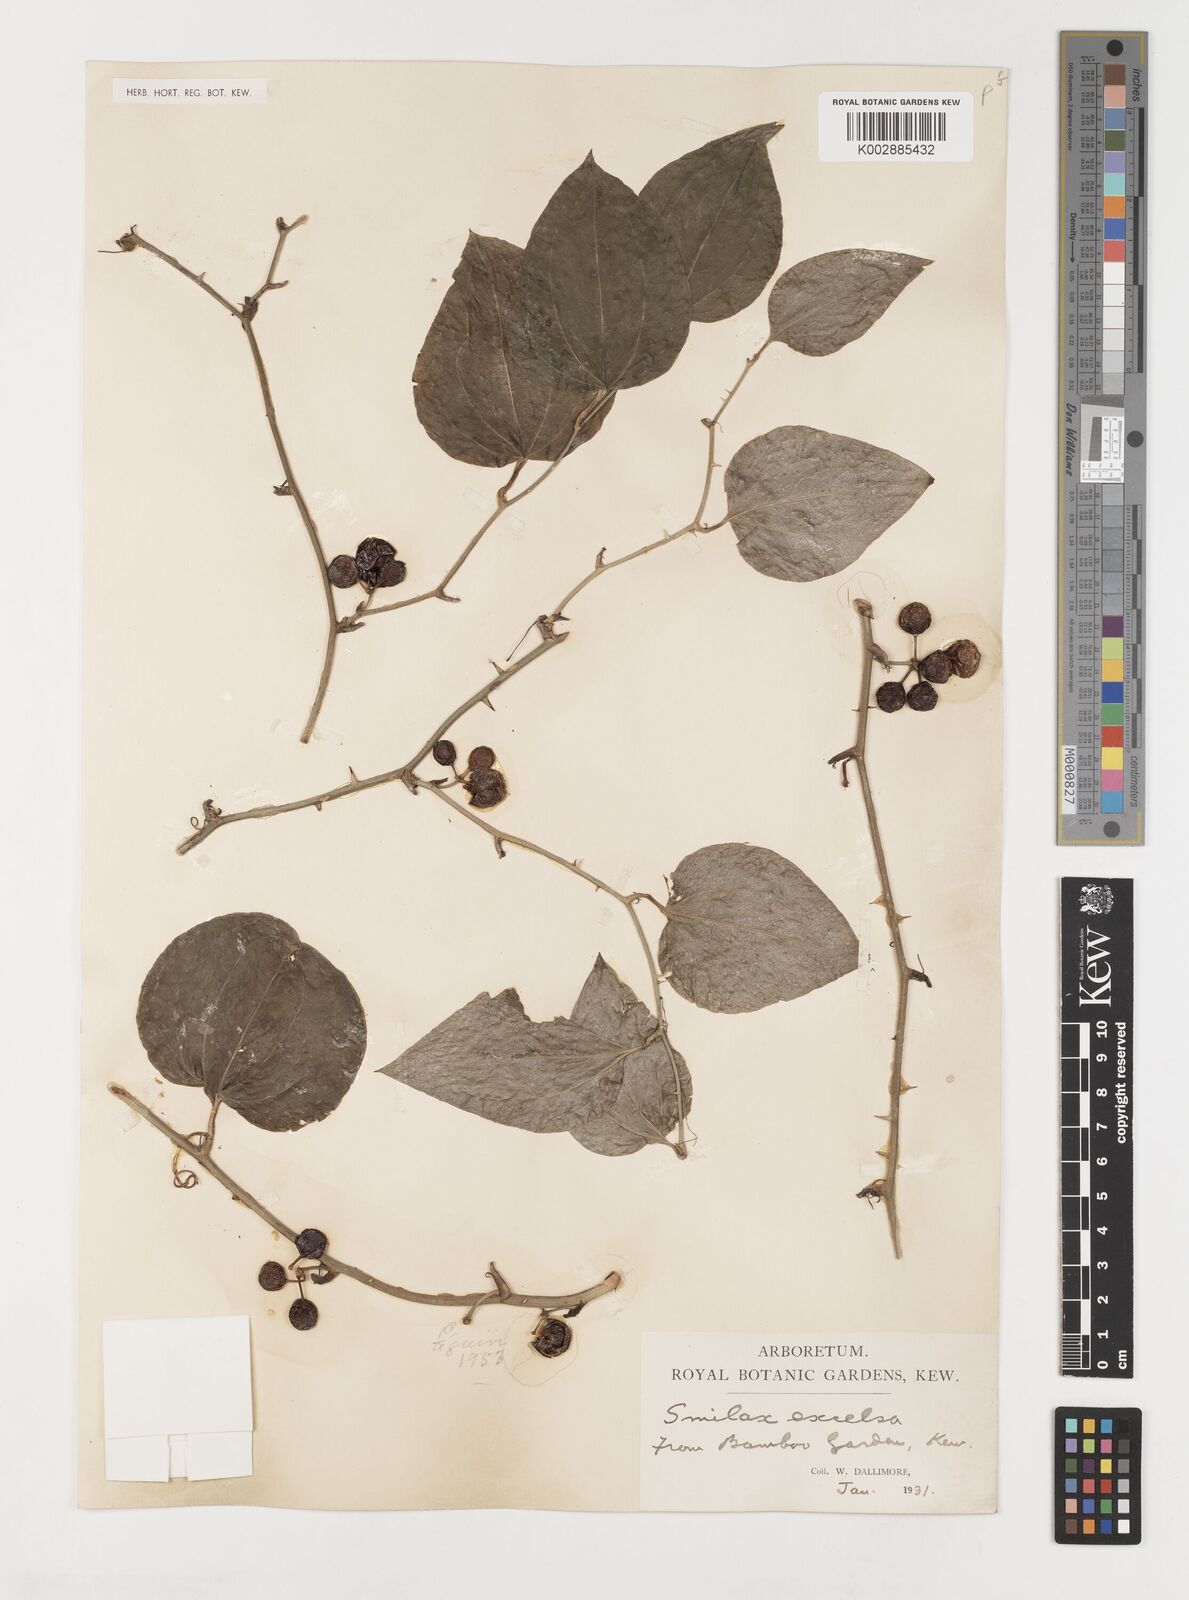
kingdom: Plantae
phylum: Tracheophyta
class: Liliopsida
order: Liliales
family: Smilacaceae
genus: Smilax
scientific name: Smilax excelsa
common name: Larger smilax
